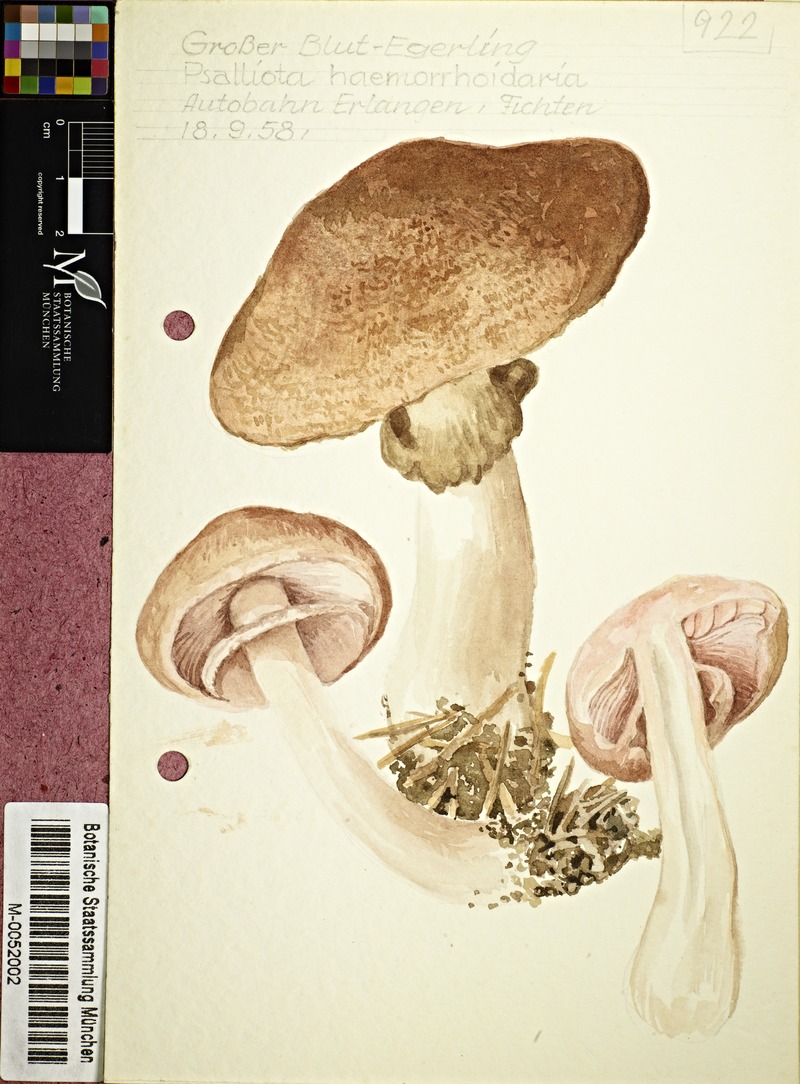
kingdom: Fungi
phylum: Basidiomycota
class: Agaricomycetes
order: Agaricales
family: Agaricaceae
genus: Agaricus
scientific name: Agaricus sylvaticus
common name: Blushing wood mushroom
